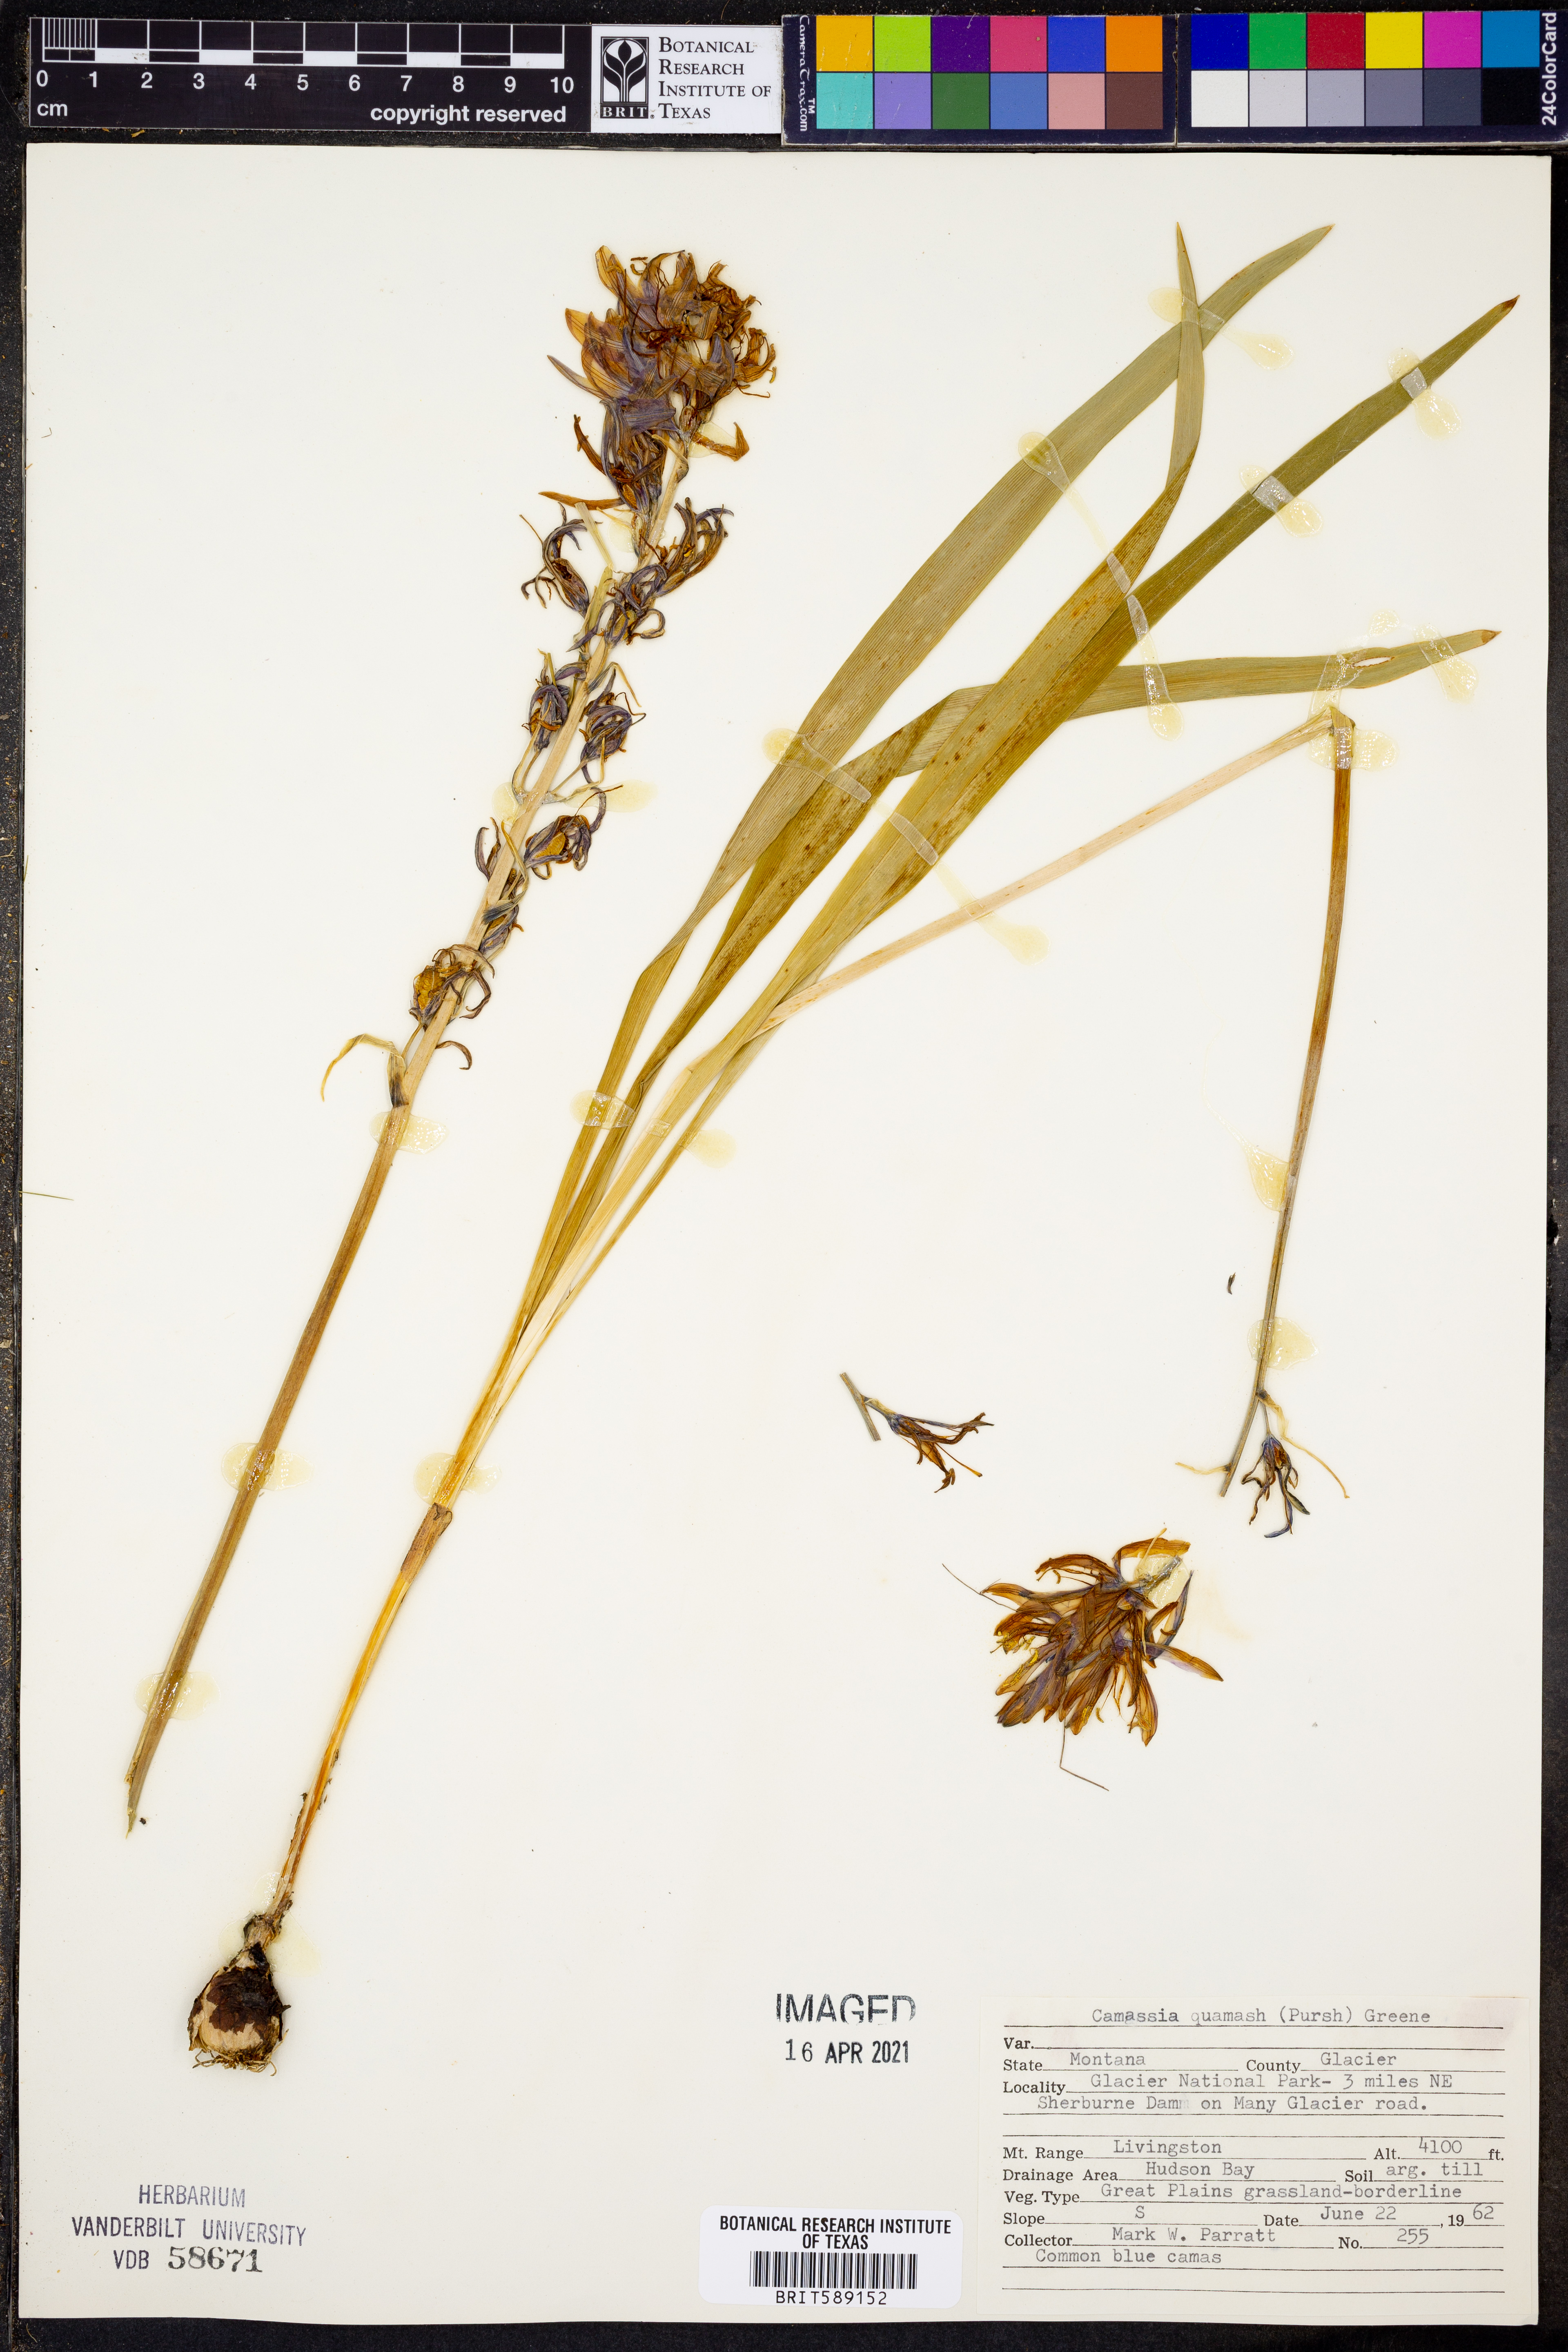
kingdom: Plantae
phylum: Tracheophyta
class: Liliopsida
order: Asparagales
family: Asparagaceae
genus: Camassia
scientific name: Camassia quamash
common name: Common camas
